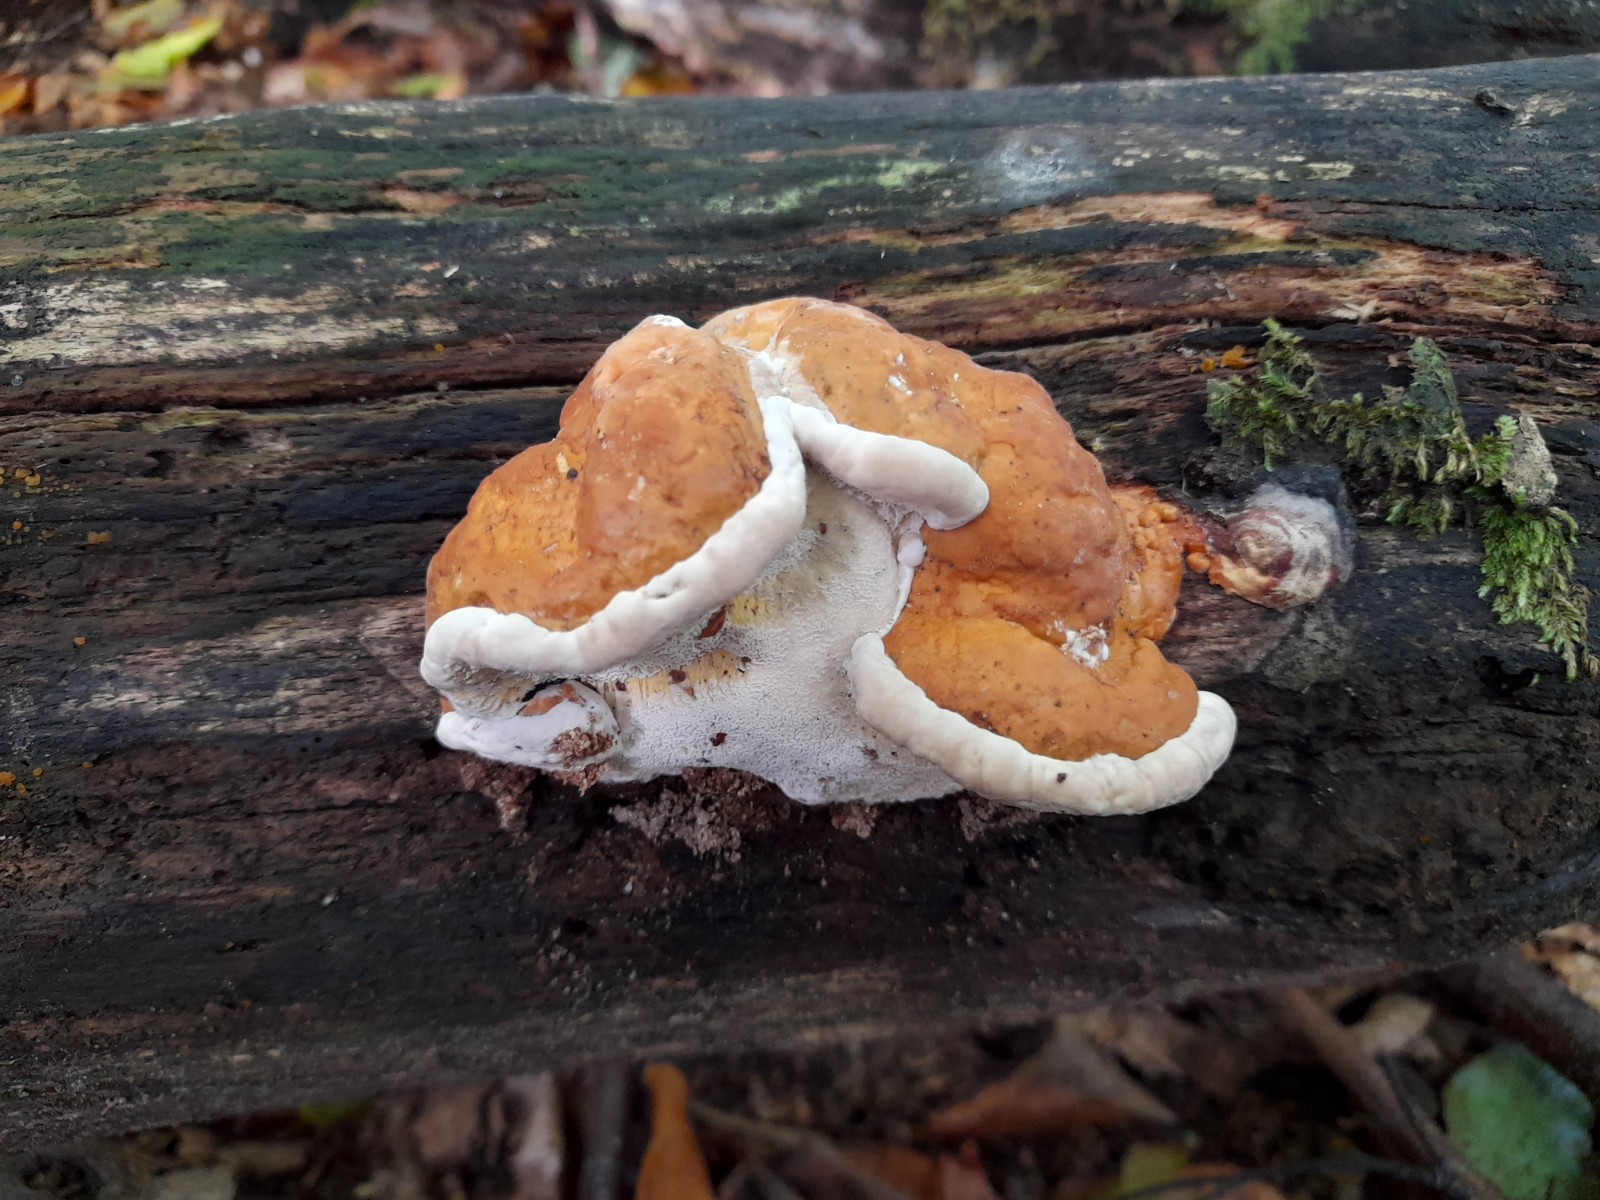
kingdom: Fungi
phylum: Basidiomycota
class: Agaricomycetes
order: Polyporales
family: Fomitopsidaceae
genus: Fomitopsis
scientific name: Fomitopsis pinicola
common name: randbæltet hovporesvamp
